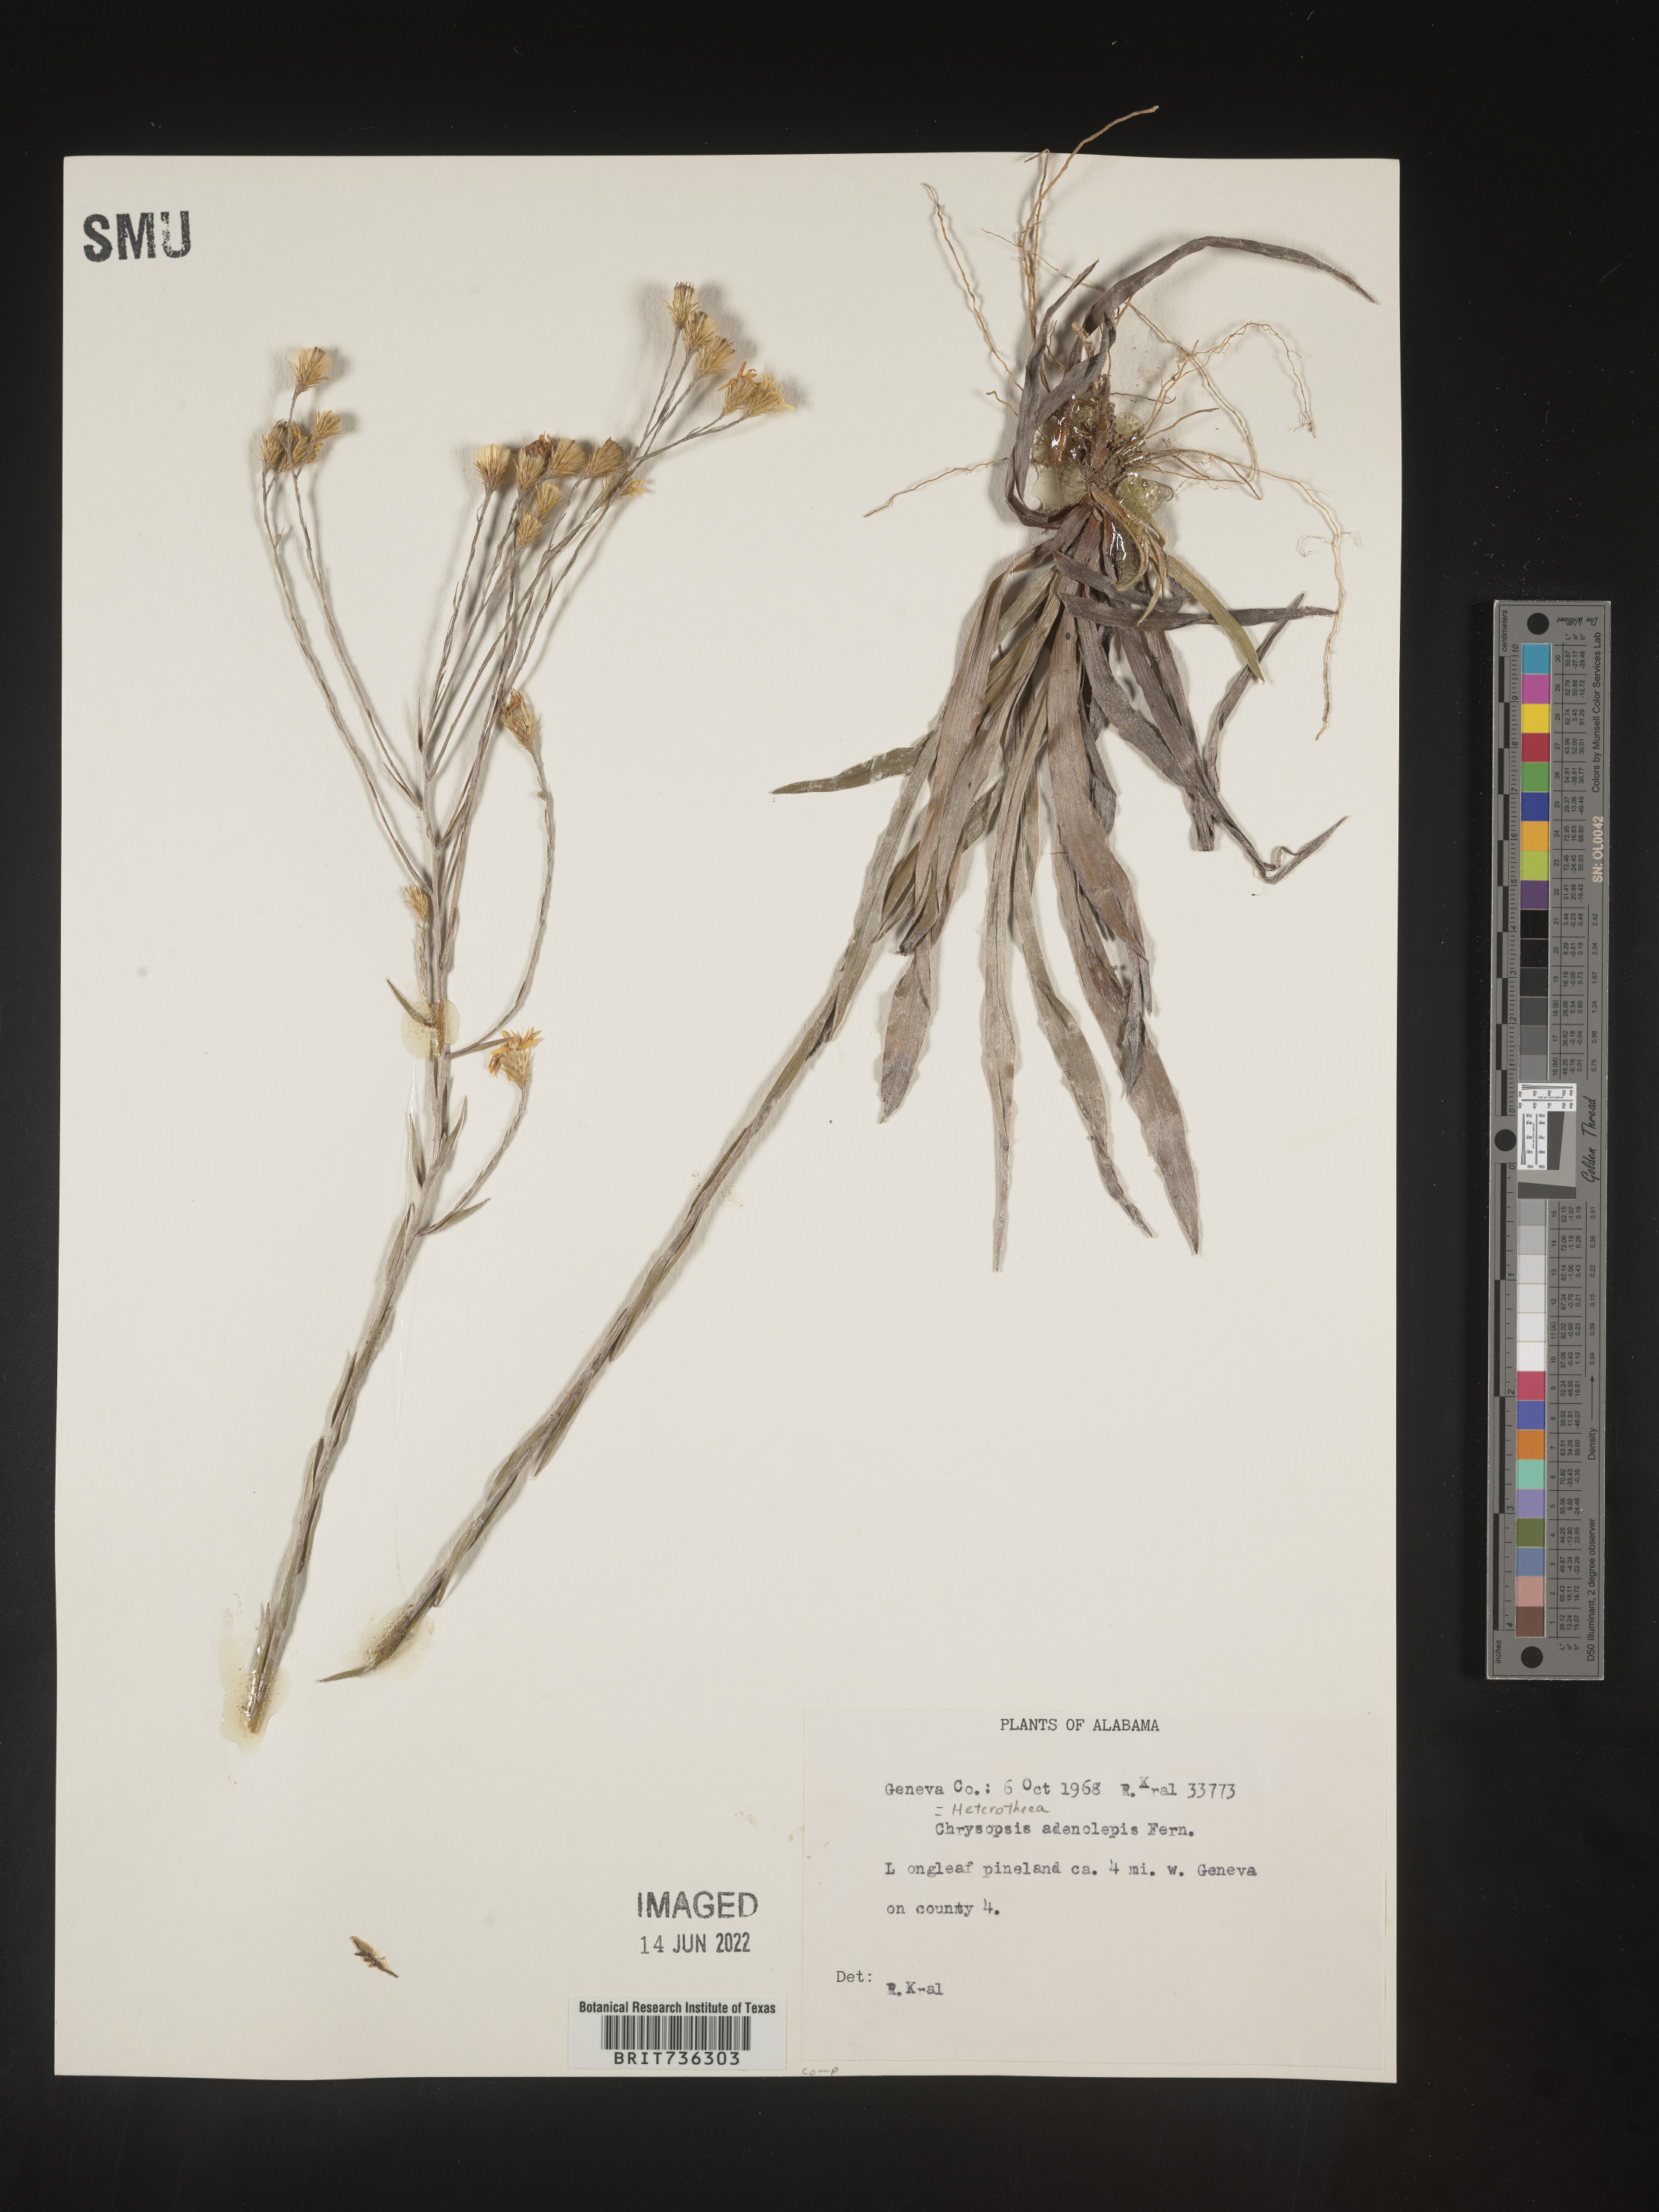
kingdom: Plantae
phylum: Tracheophyta
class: Magnoliopsida
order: Asterales
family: Asteraceae
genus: Pityopsis
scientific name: Pityopsis microcephala
